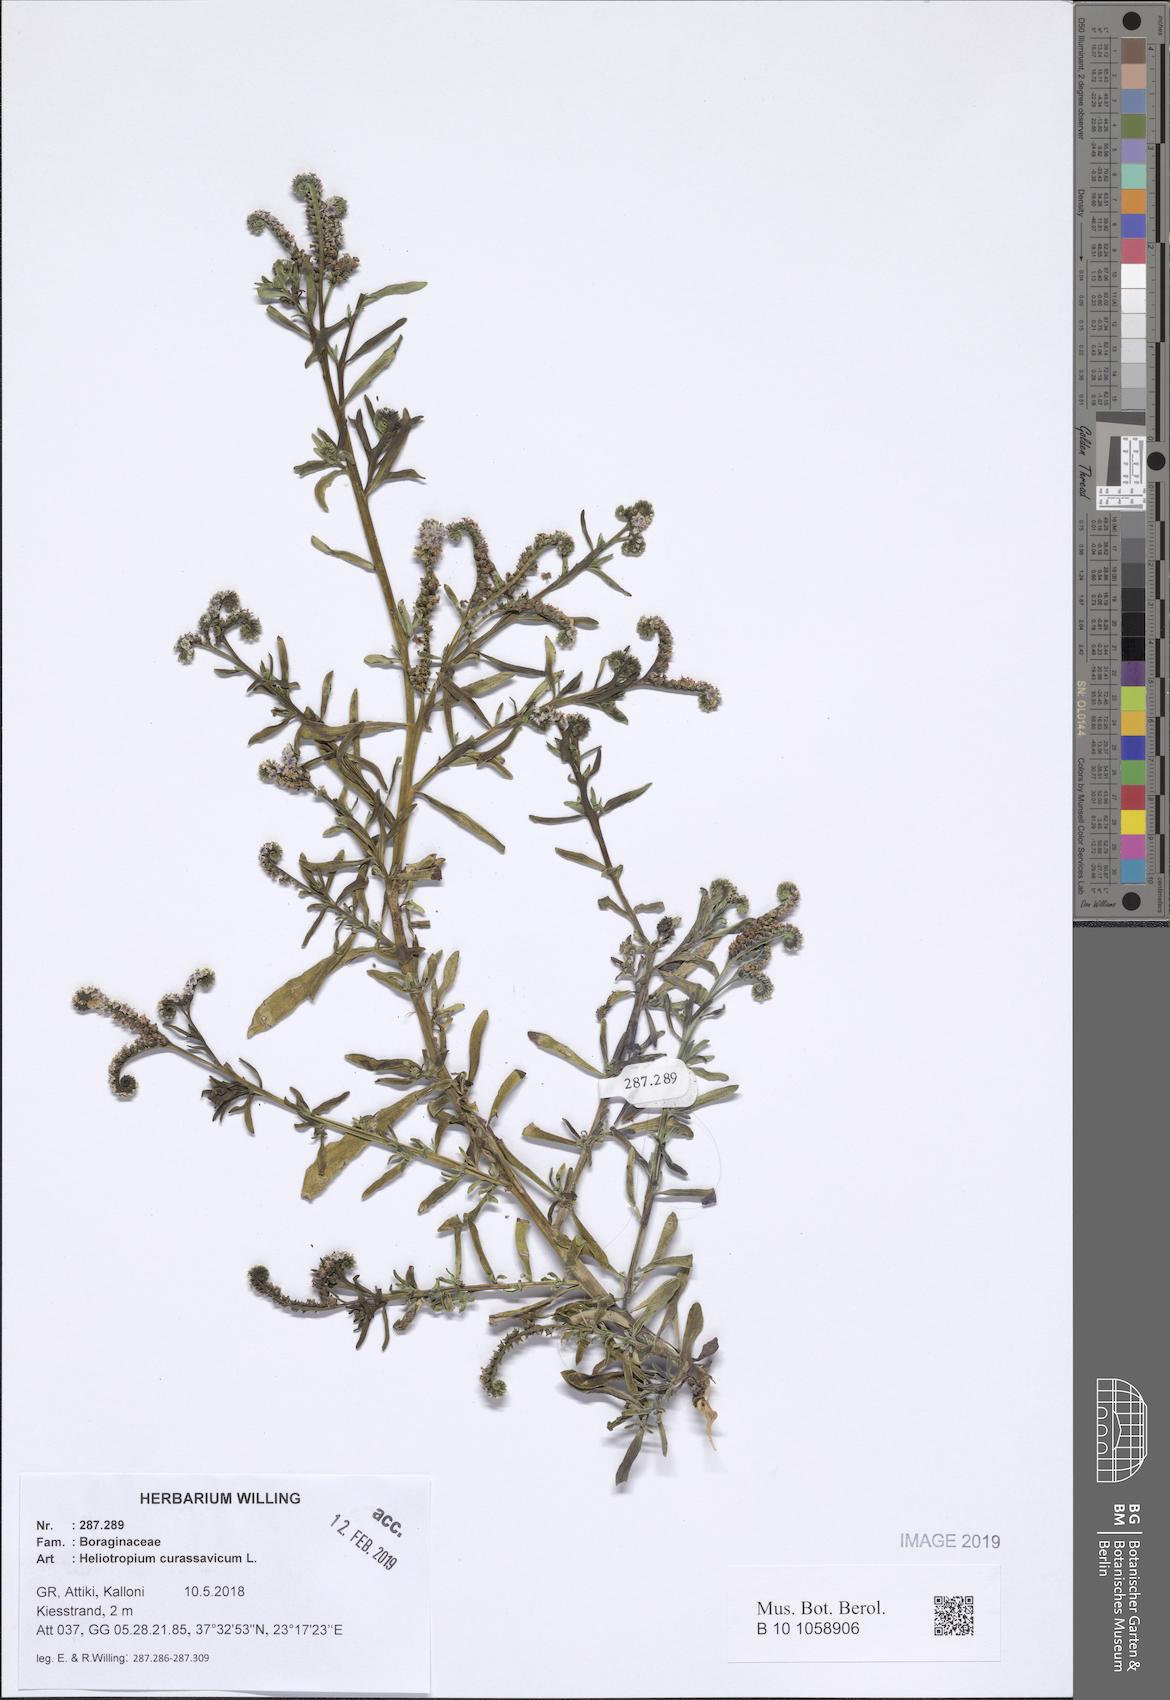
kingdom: Plantae
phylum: Tracheophyta
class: Magnoliopsida
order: Boraginales
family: Heliotropiaceae
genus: Heliotropium
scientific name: Heliotropium curassavicum
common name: Seaside heliotrope
